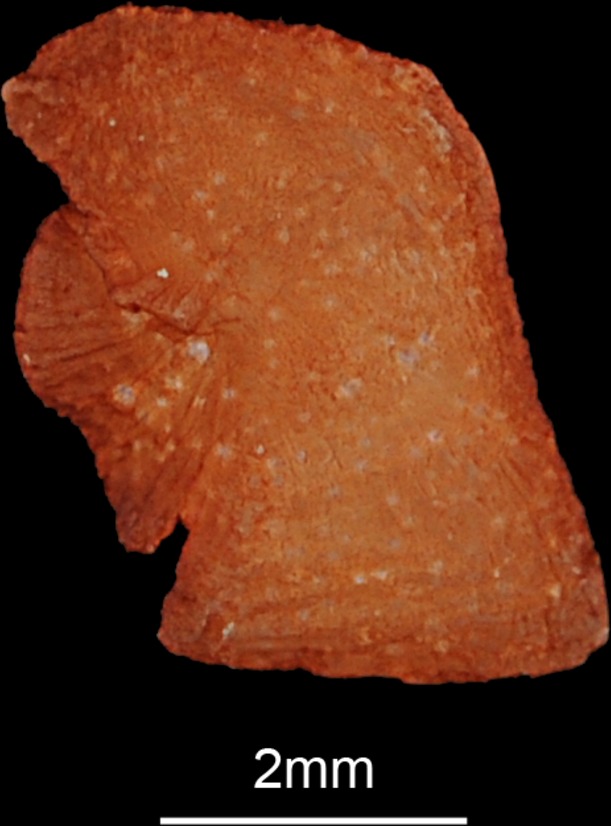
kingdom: Animalia
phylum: Chordata
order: Siluriformes
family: Claroteidae
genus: Chrysichthys
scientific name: Chrysichthys nigrodigitatus
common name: Bagrid catfish
